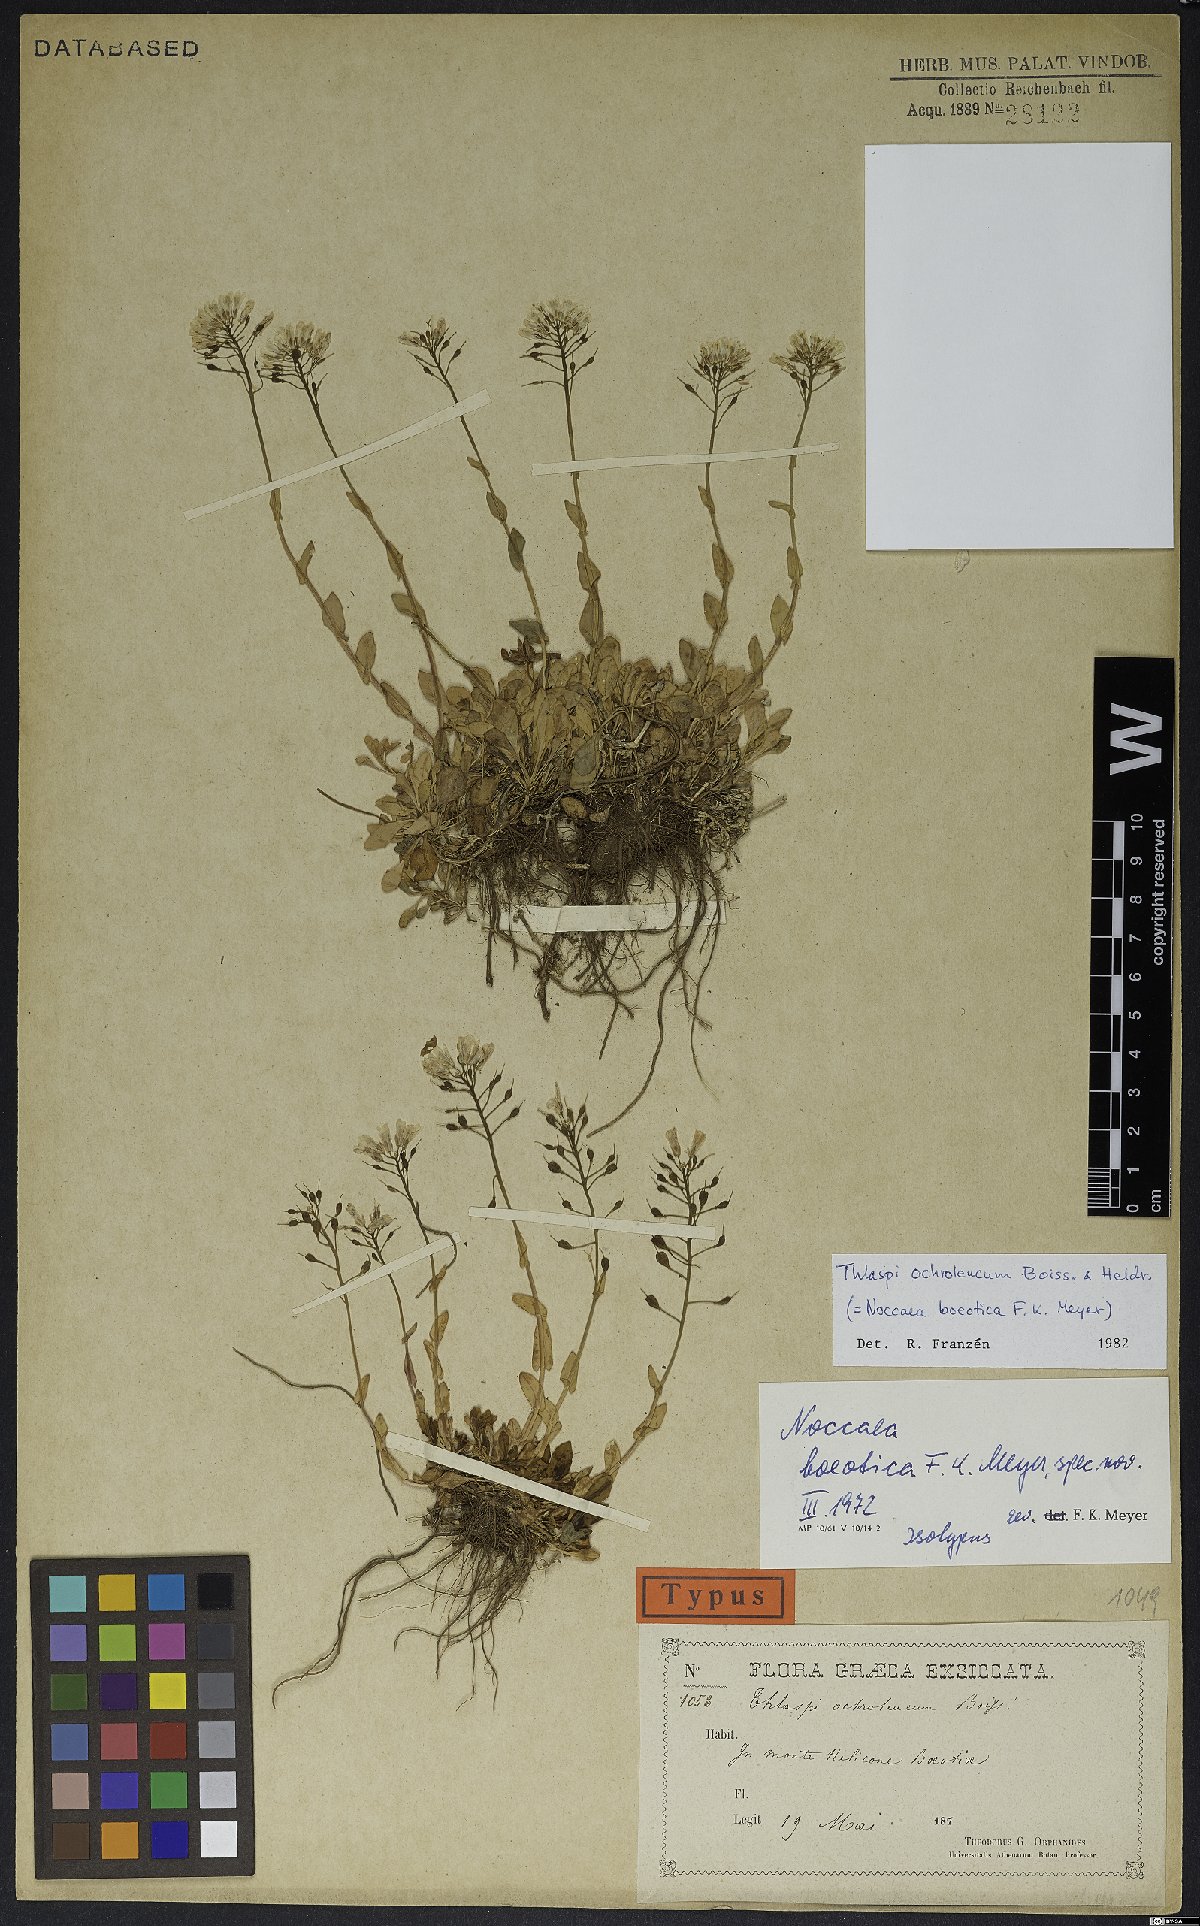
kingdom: Plantae
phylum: Tracheophyta
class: Magnoliopsida
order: Brassicales
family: Brassicaceae
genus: Noccaea
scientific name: Noccaea ochroleuca
